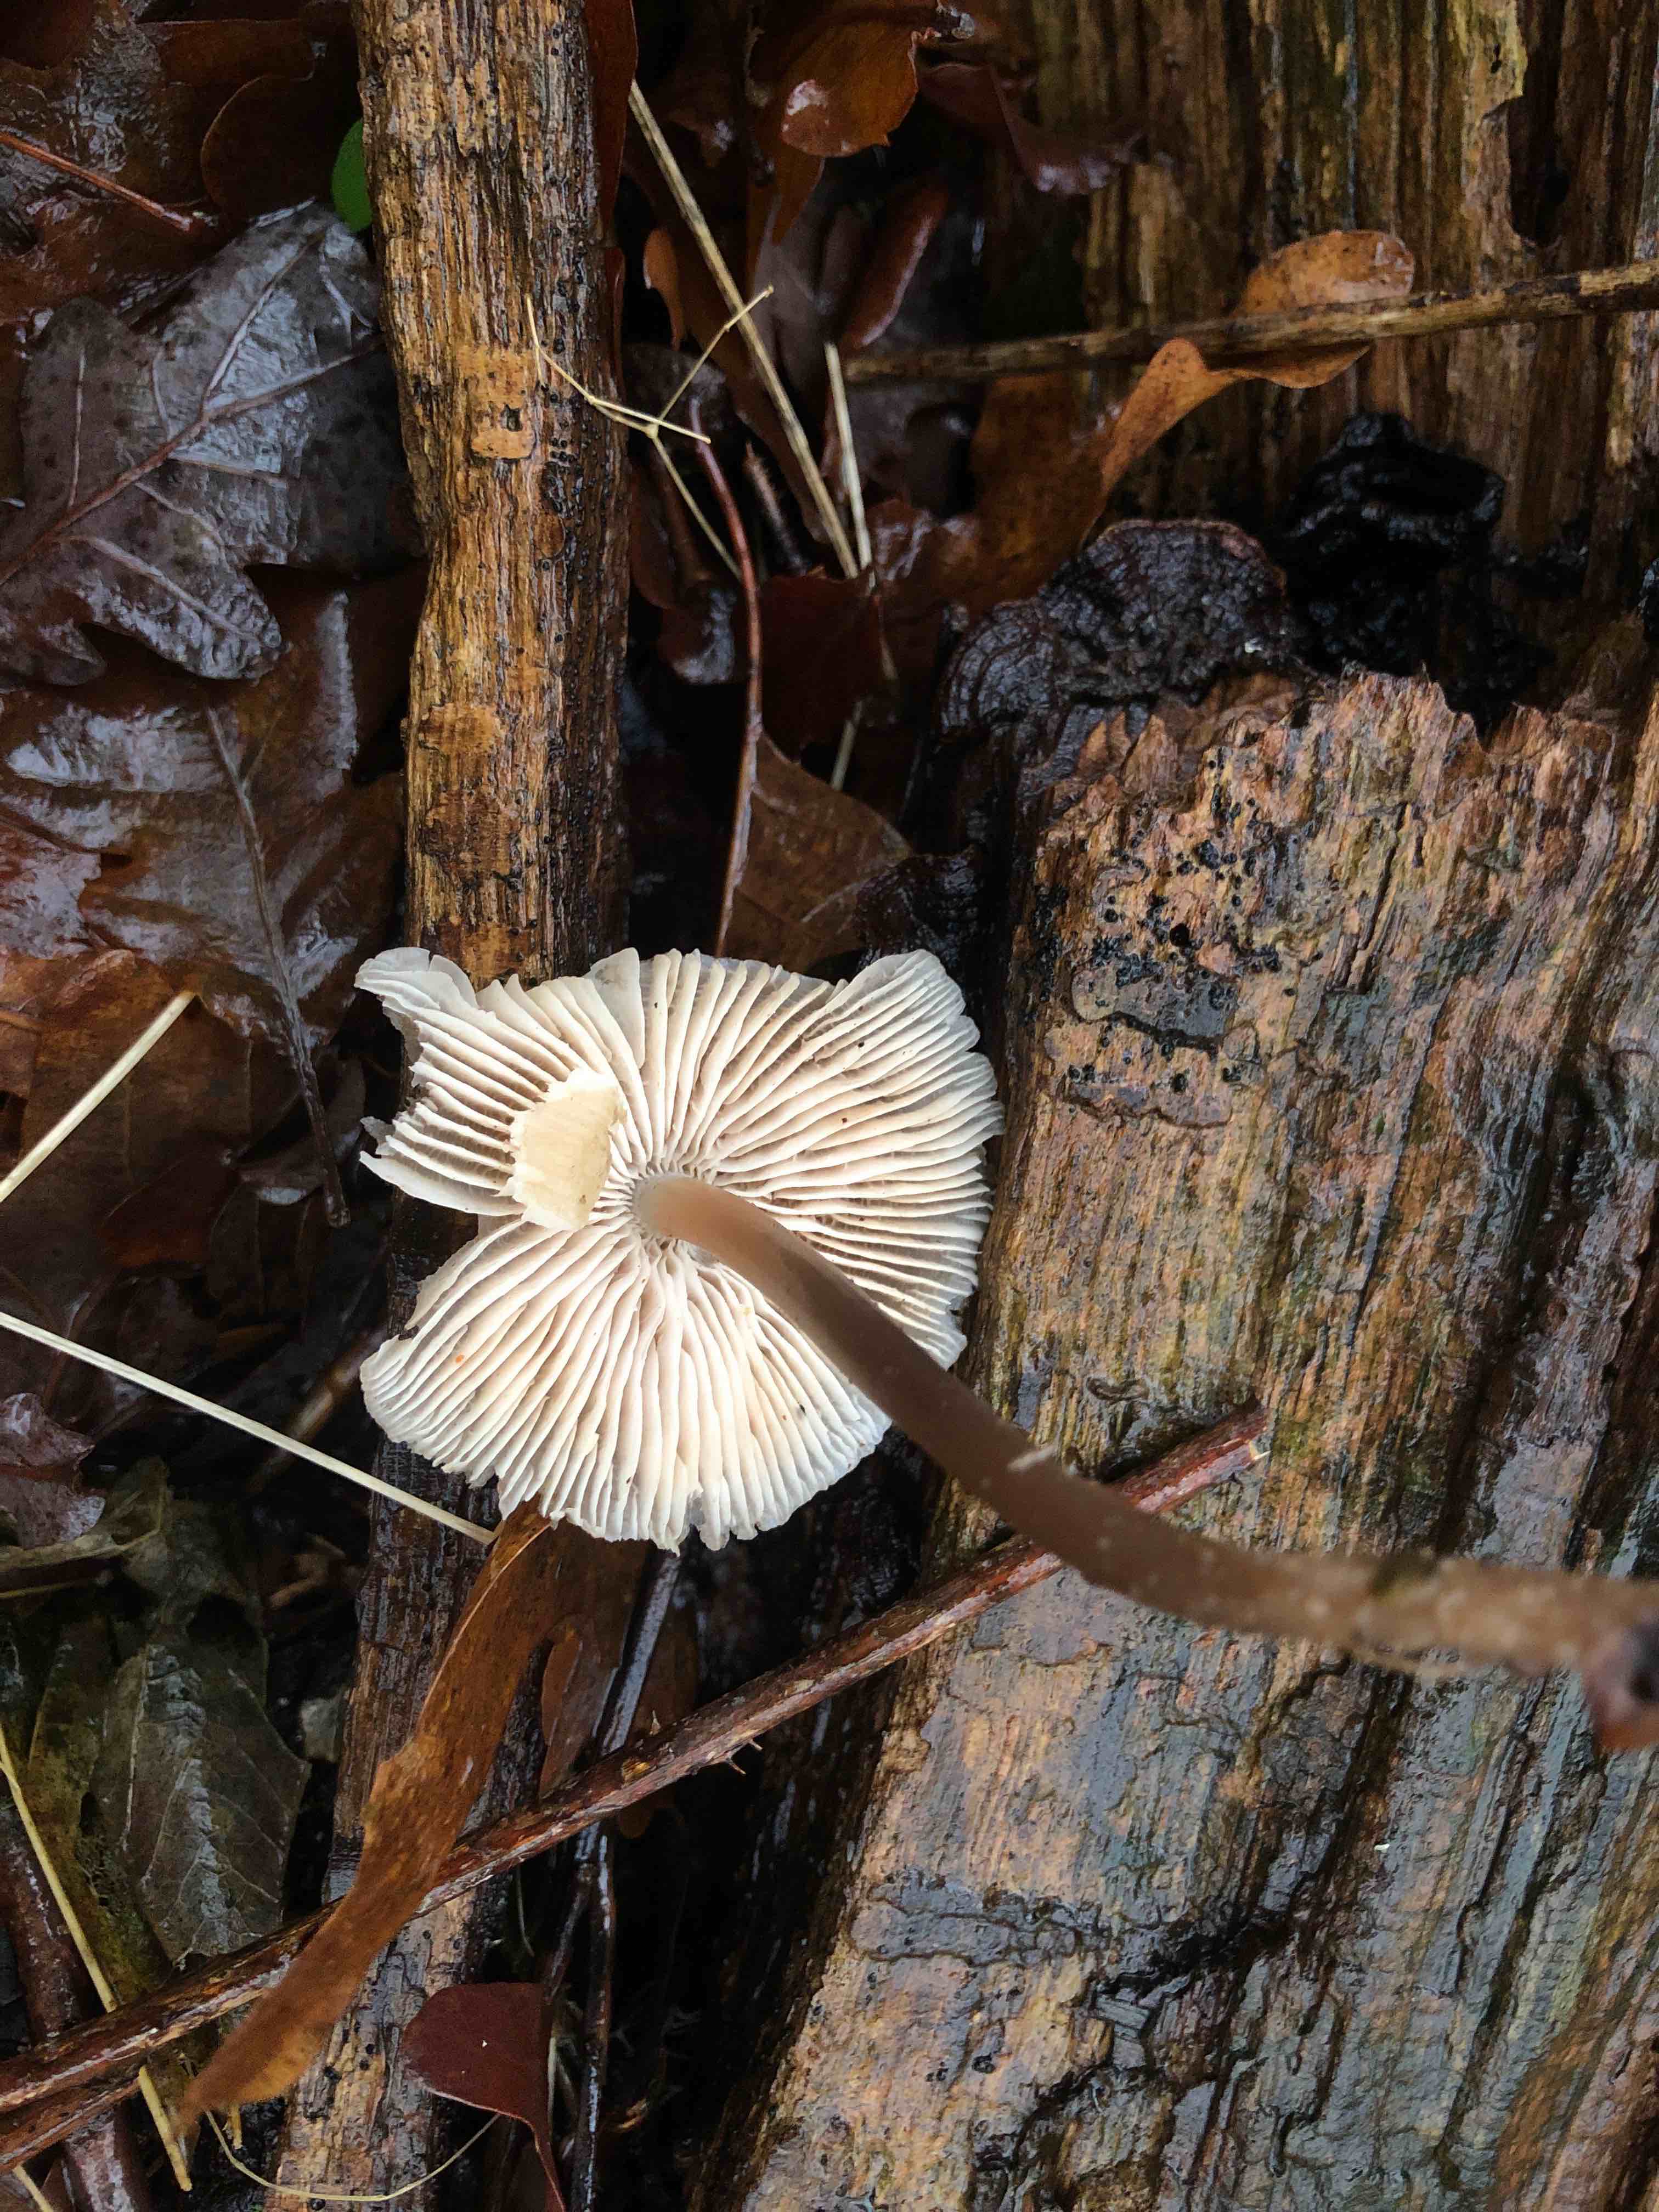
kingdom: Fungi
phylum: Basidiomycota
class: Agaricomycetes
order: Agaricales
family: Mycenaceae
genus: Mycena
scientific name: Mycena galericulata
